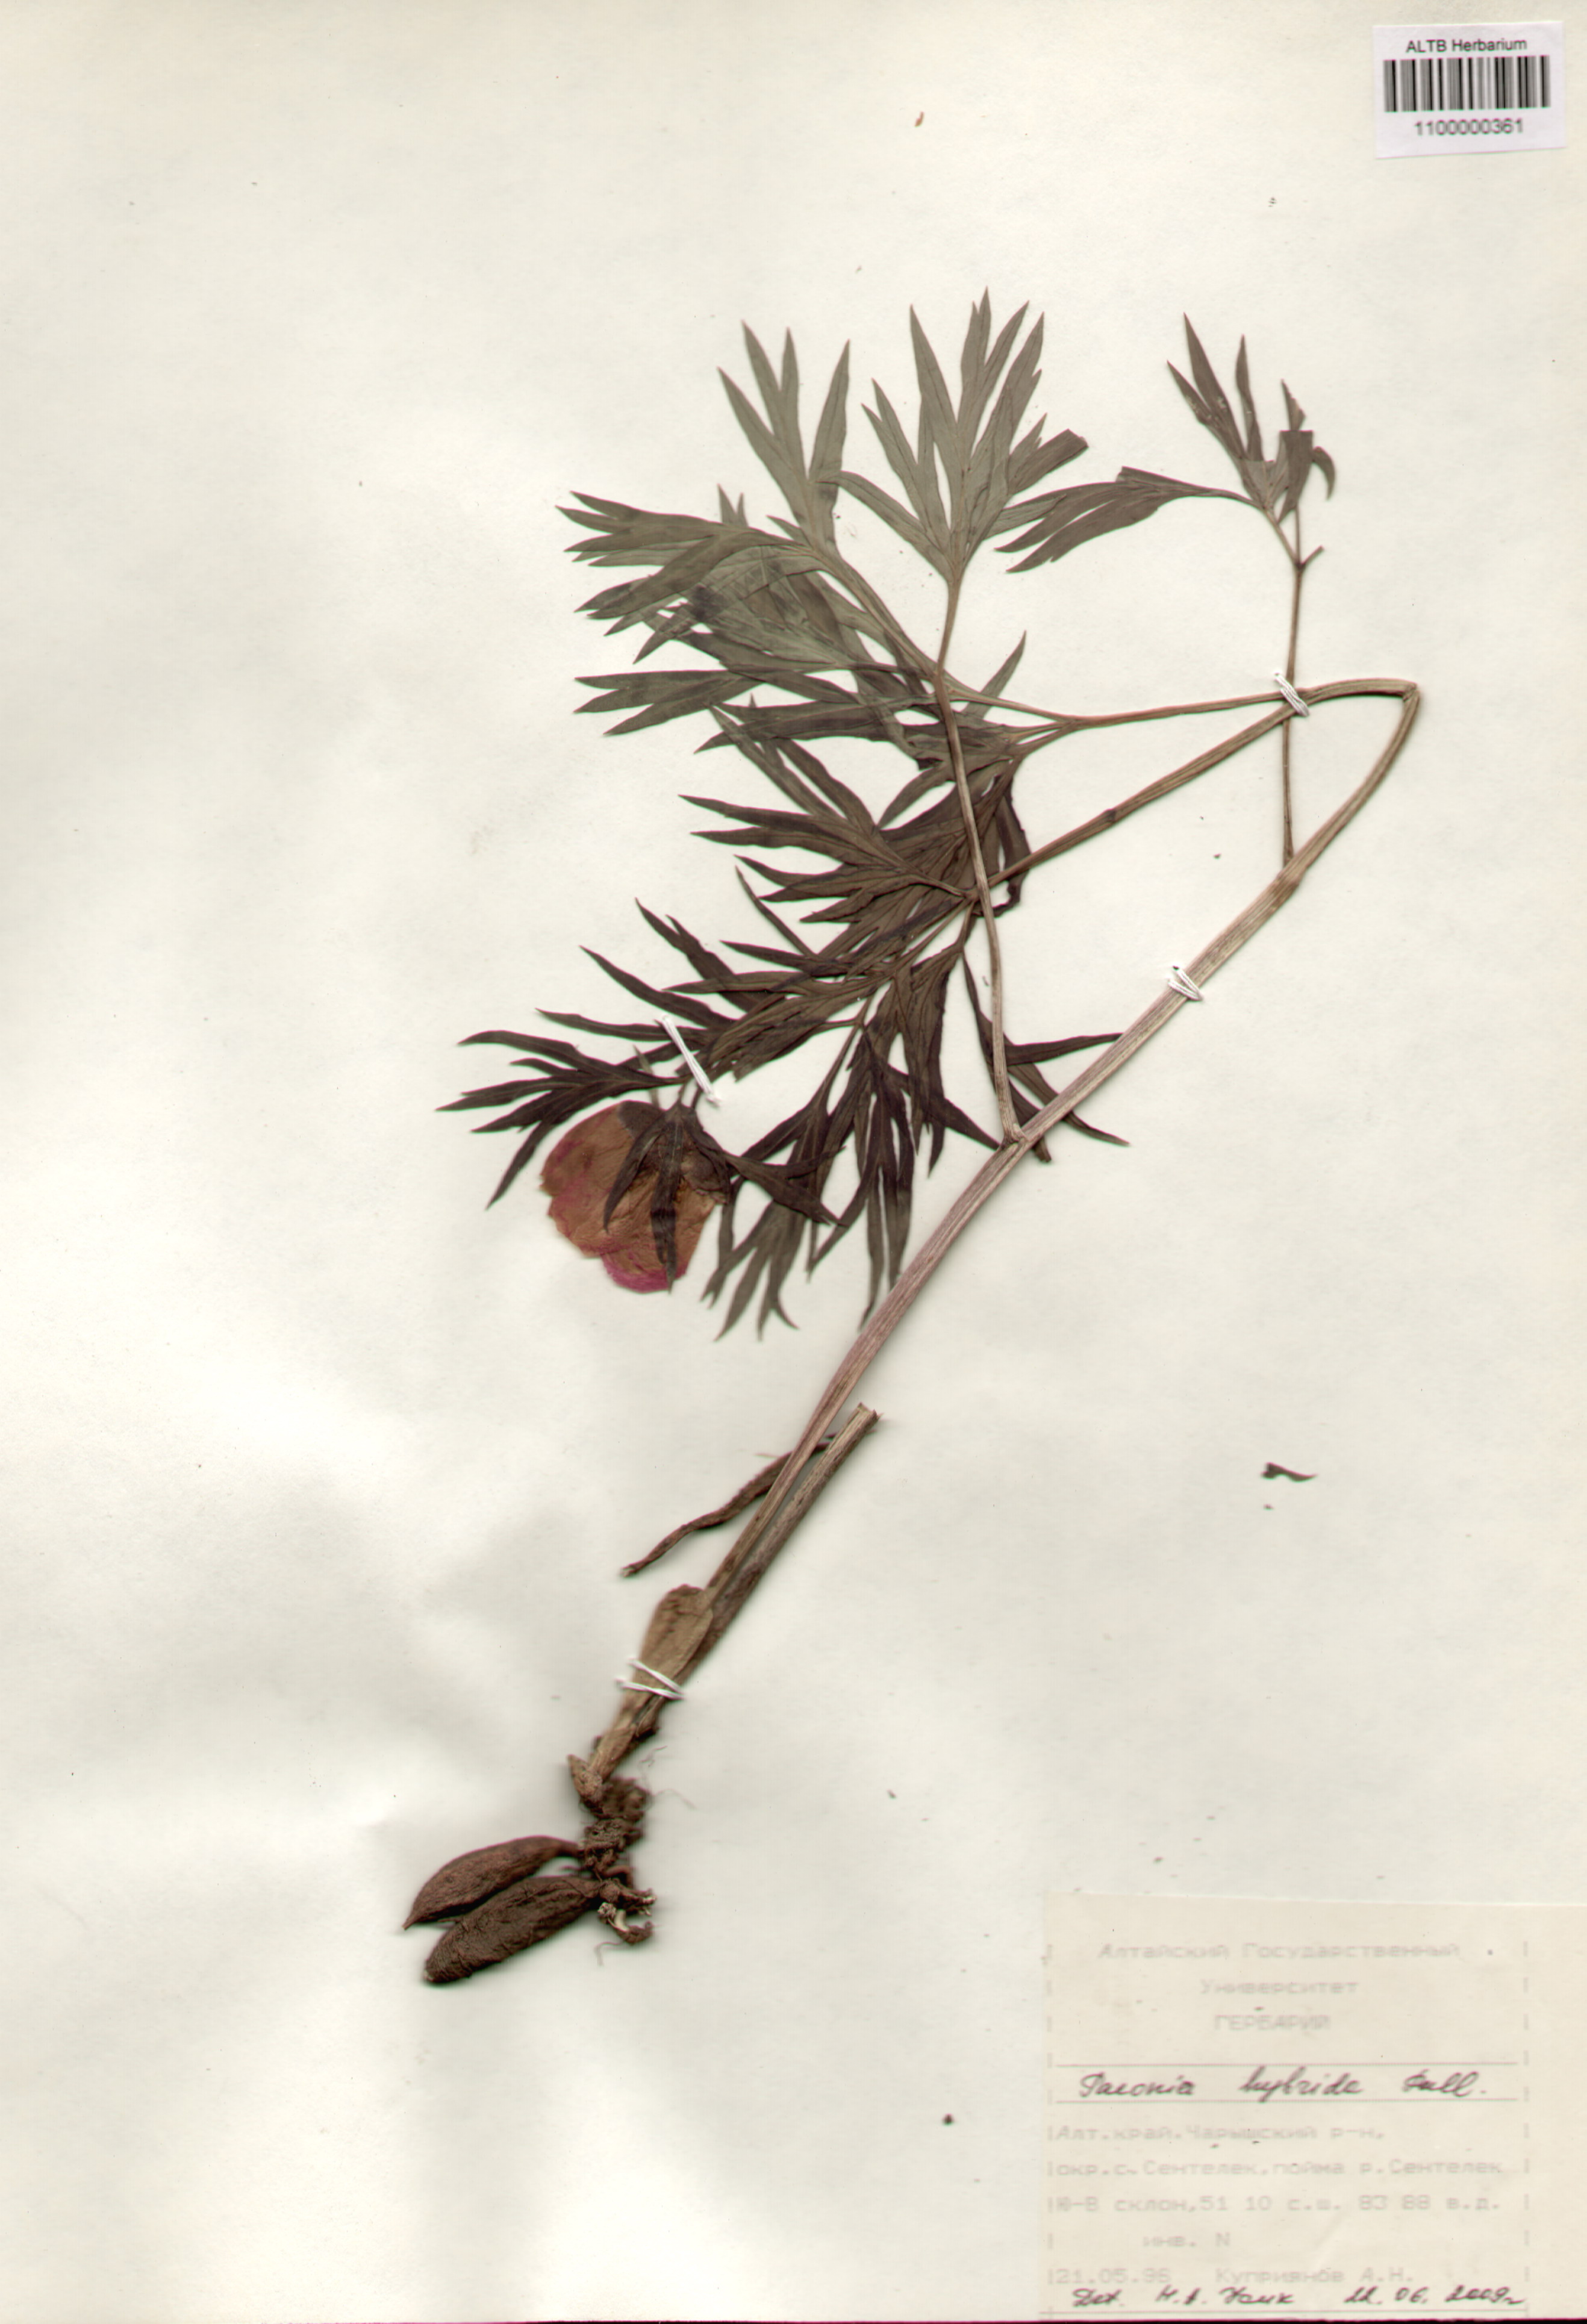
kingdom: Plantae
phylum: Tracheophyta
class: Magnoliopsida
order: Saxifragales
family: Paeoniaceae
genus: Paeonia
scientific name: Paeonia
